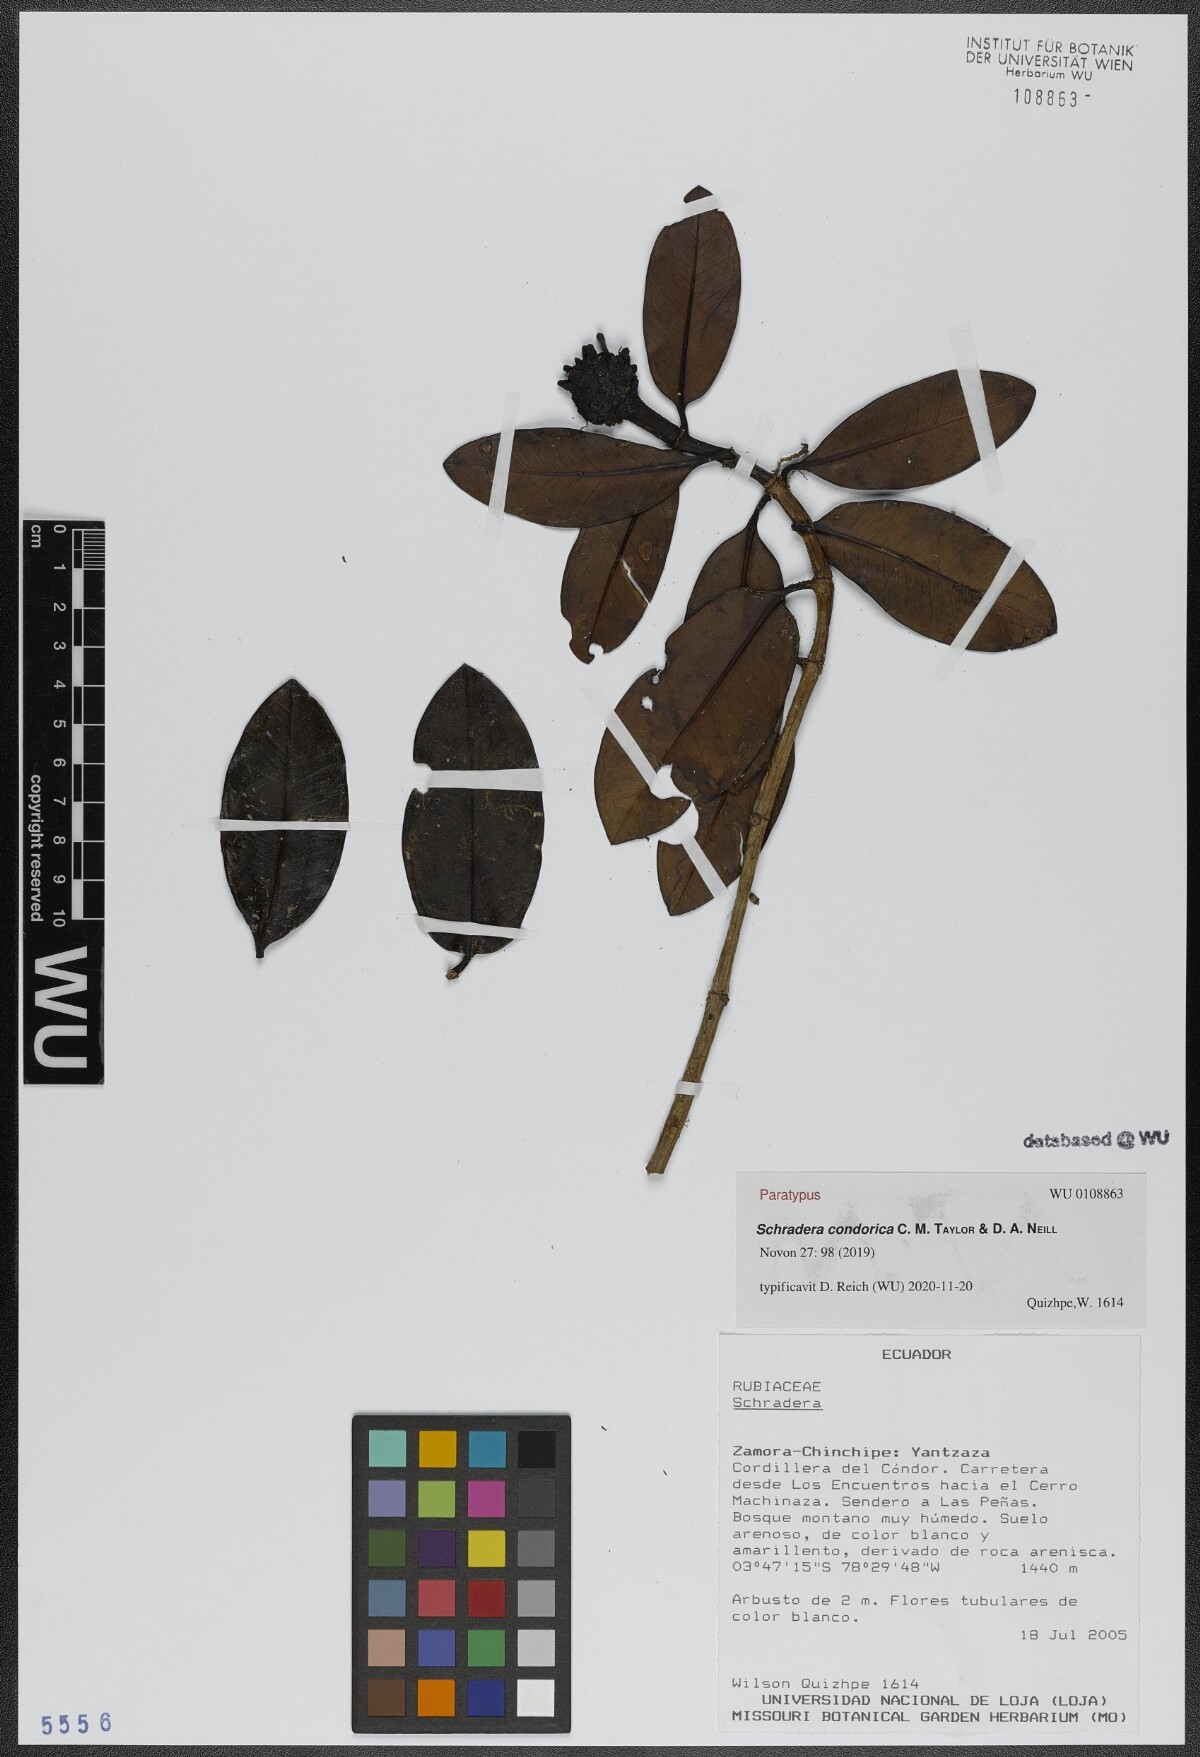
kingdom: Plantae
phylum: Tracheophyta
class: Magnoliopsida
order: Gentianales
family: Rubiaceae
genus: Schradera
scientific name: Schradera condorica
